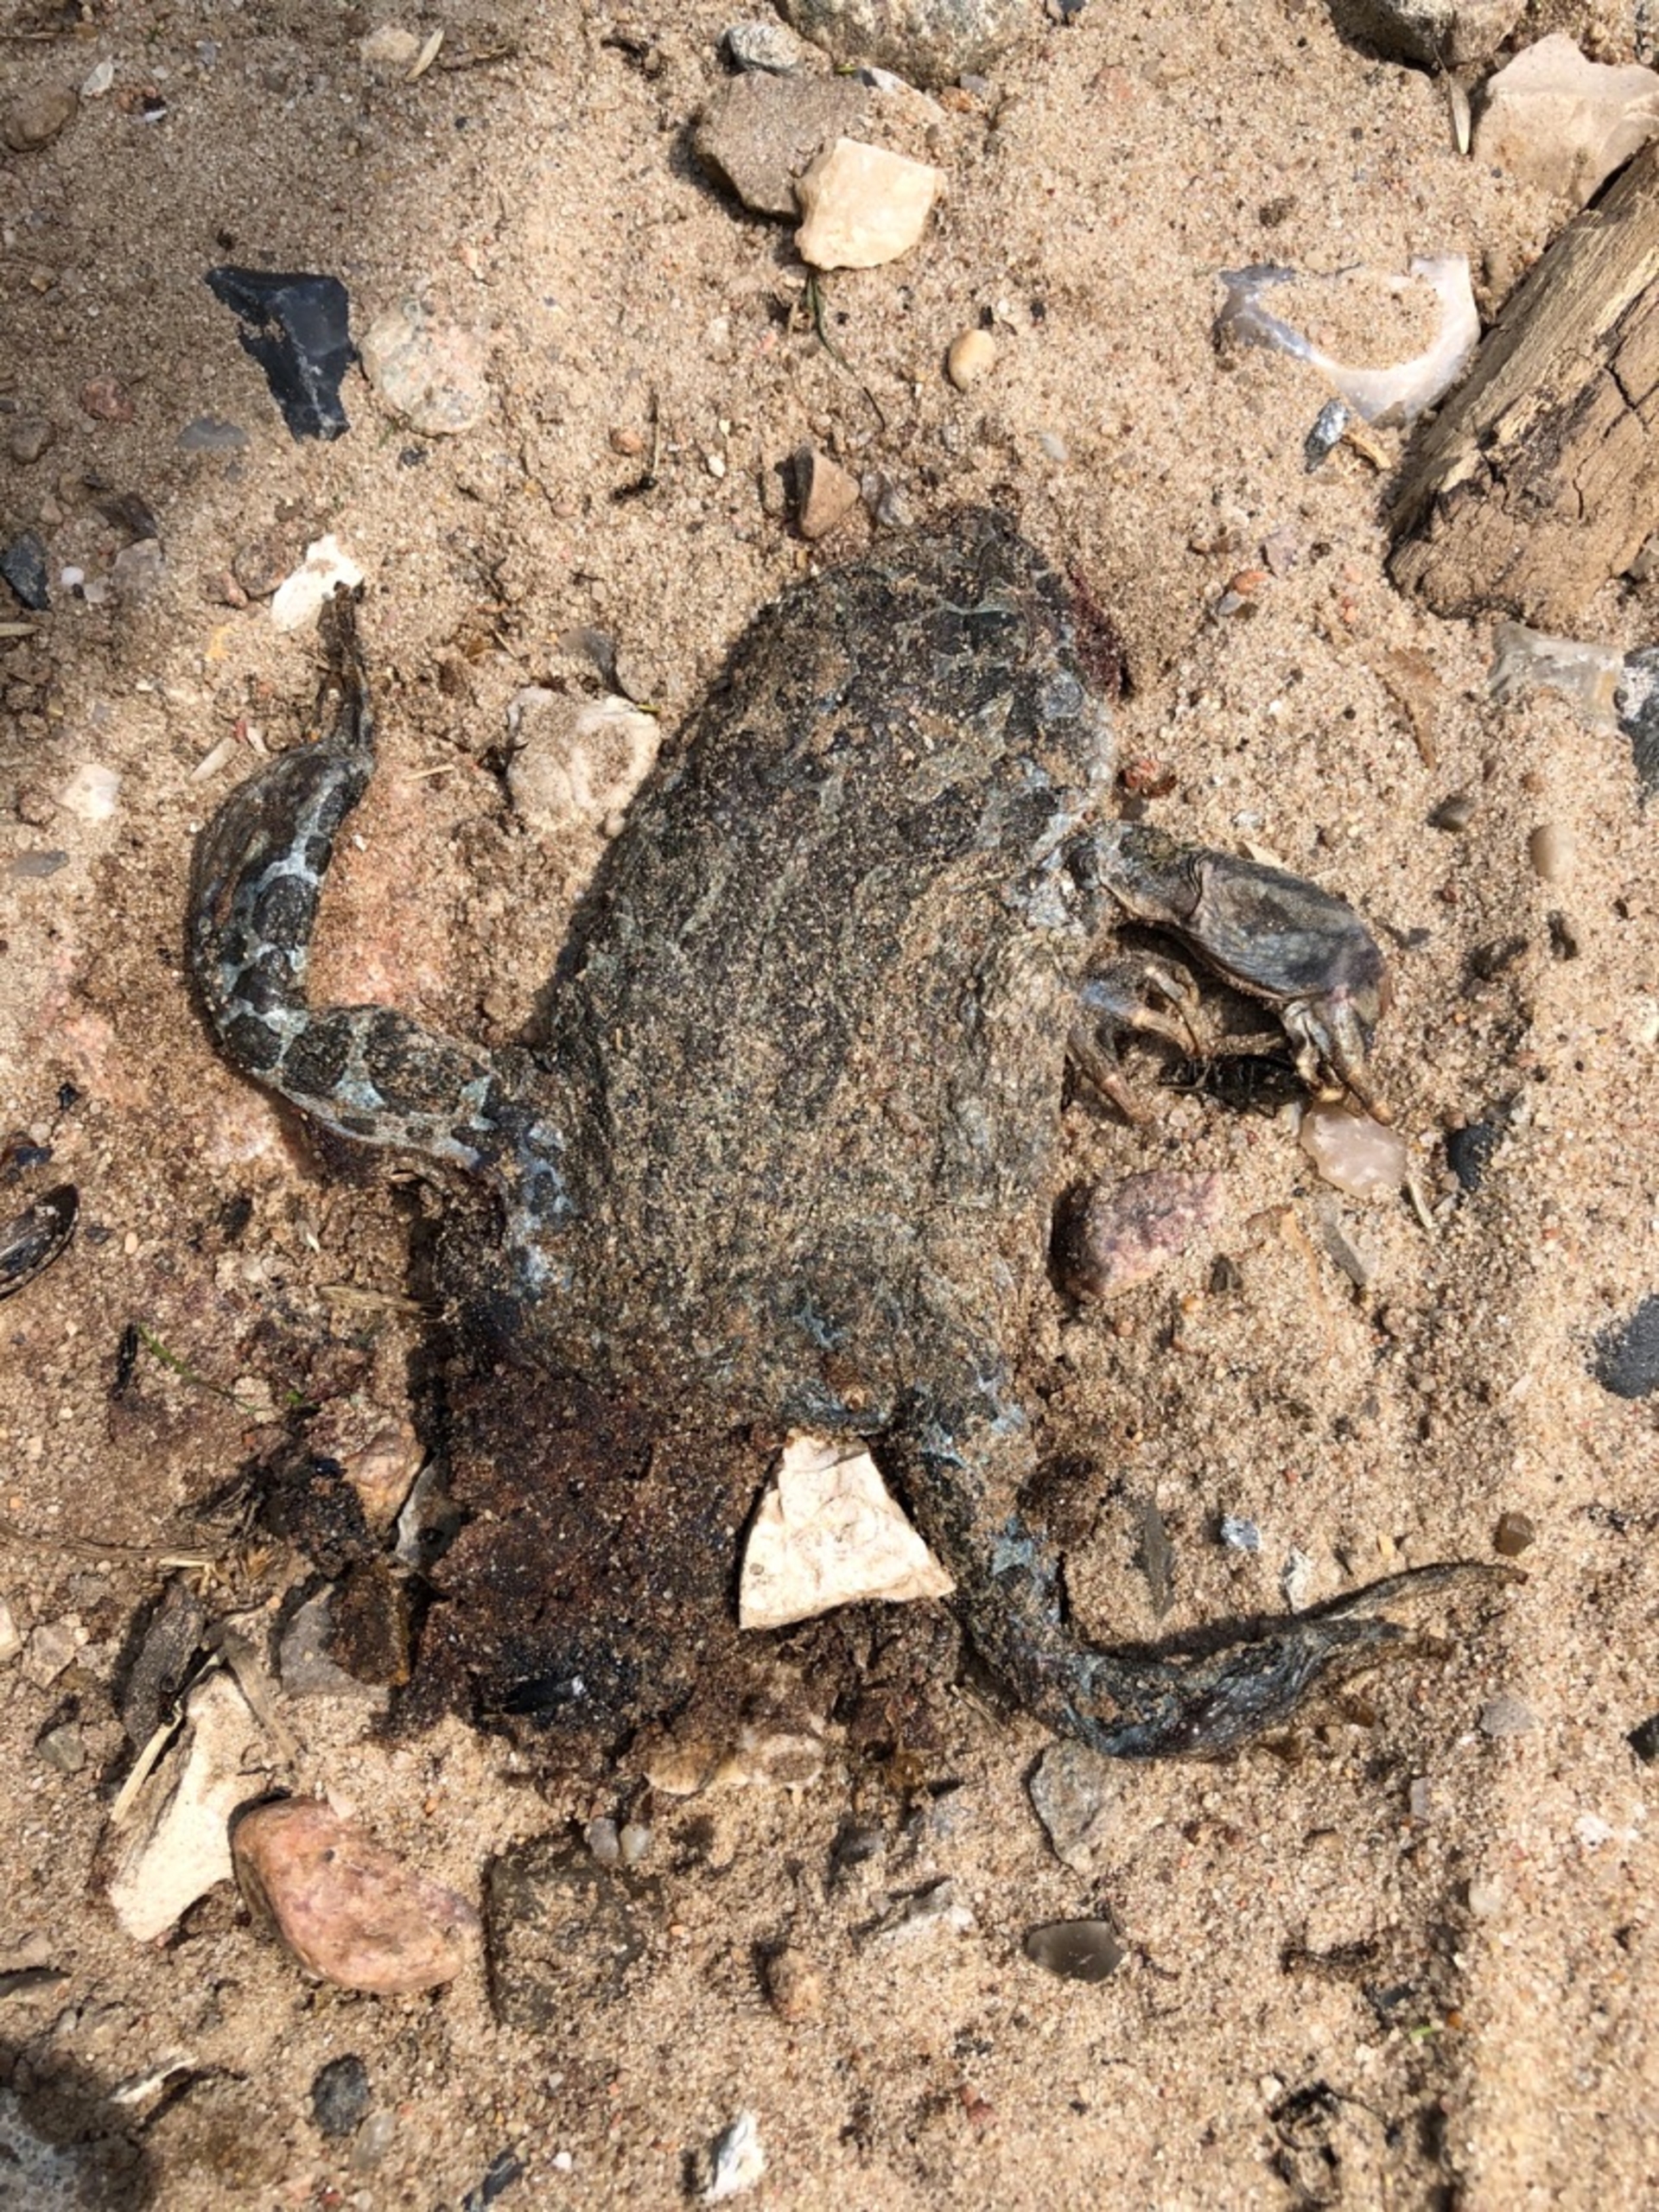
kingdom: Animalia
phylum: Chordata
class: Amphibia
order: Anura
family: Bufonidae
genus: Bufotes
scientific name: Bufotes viridis
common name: Grønbroget tudse
